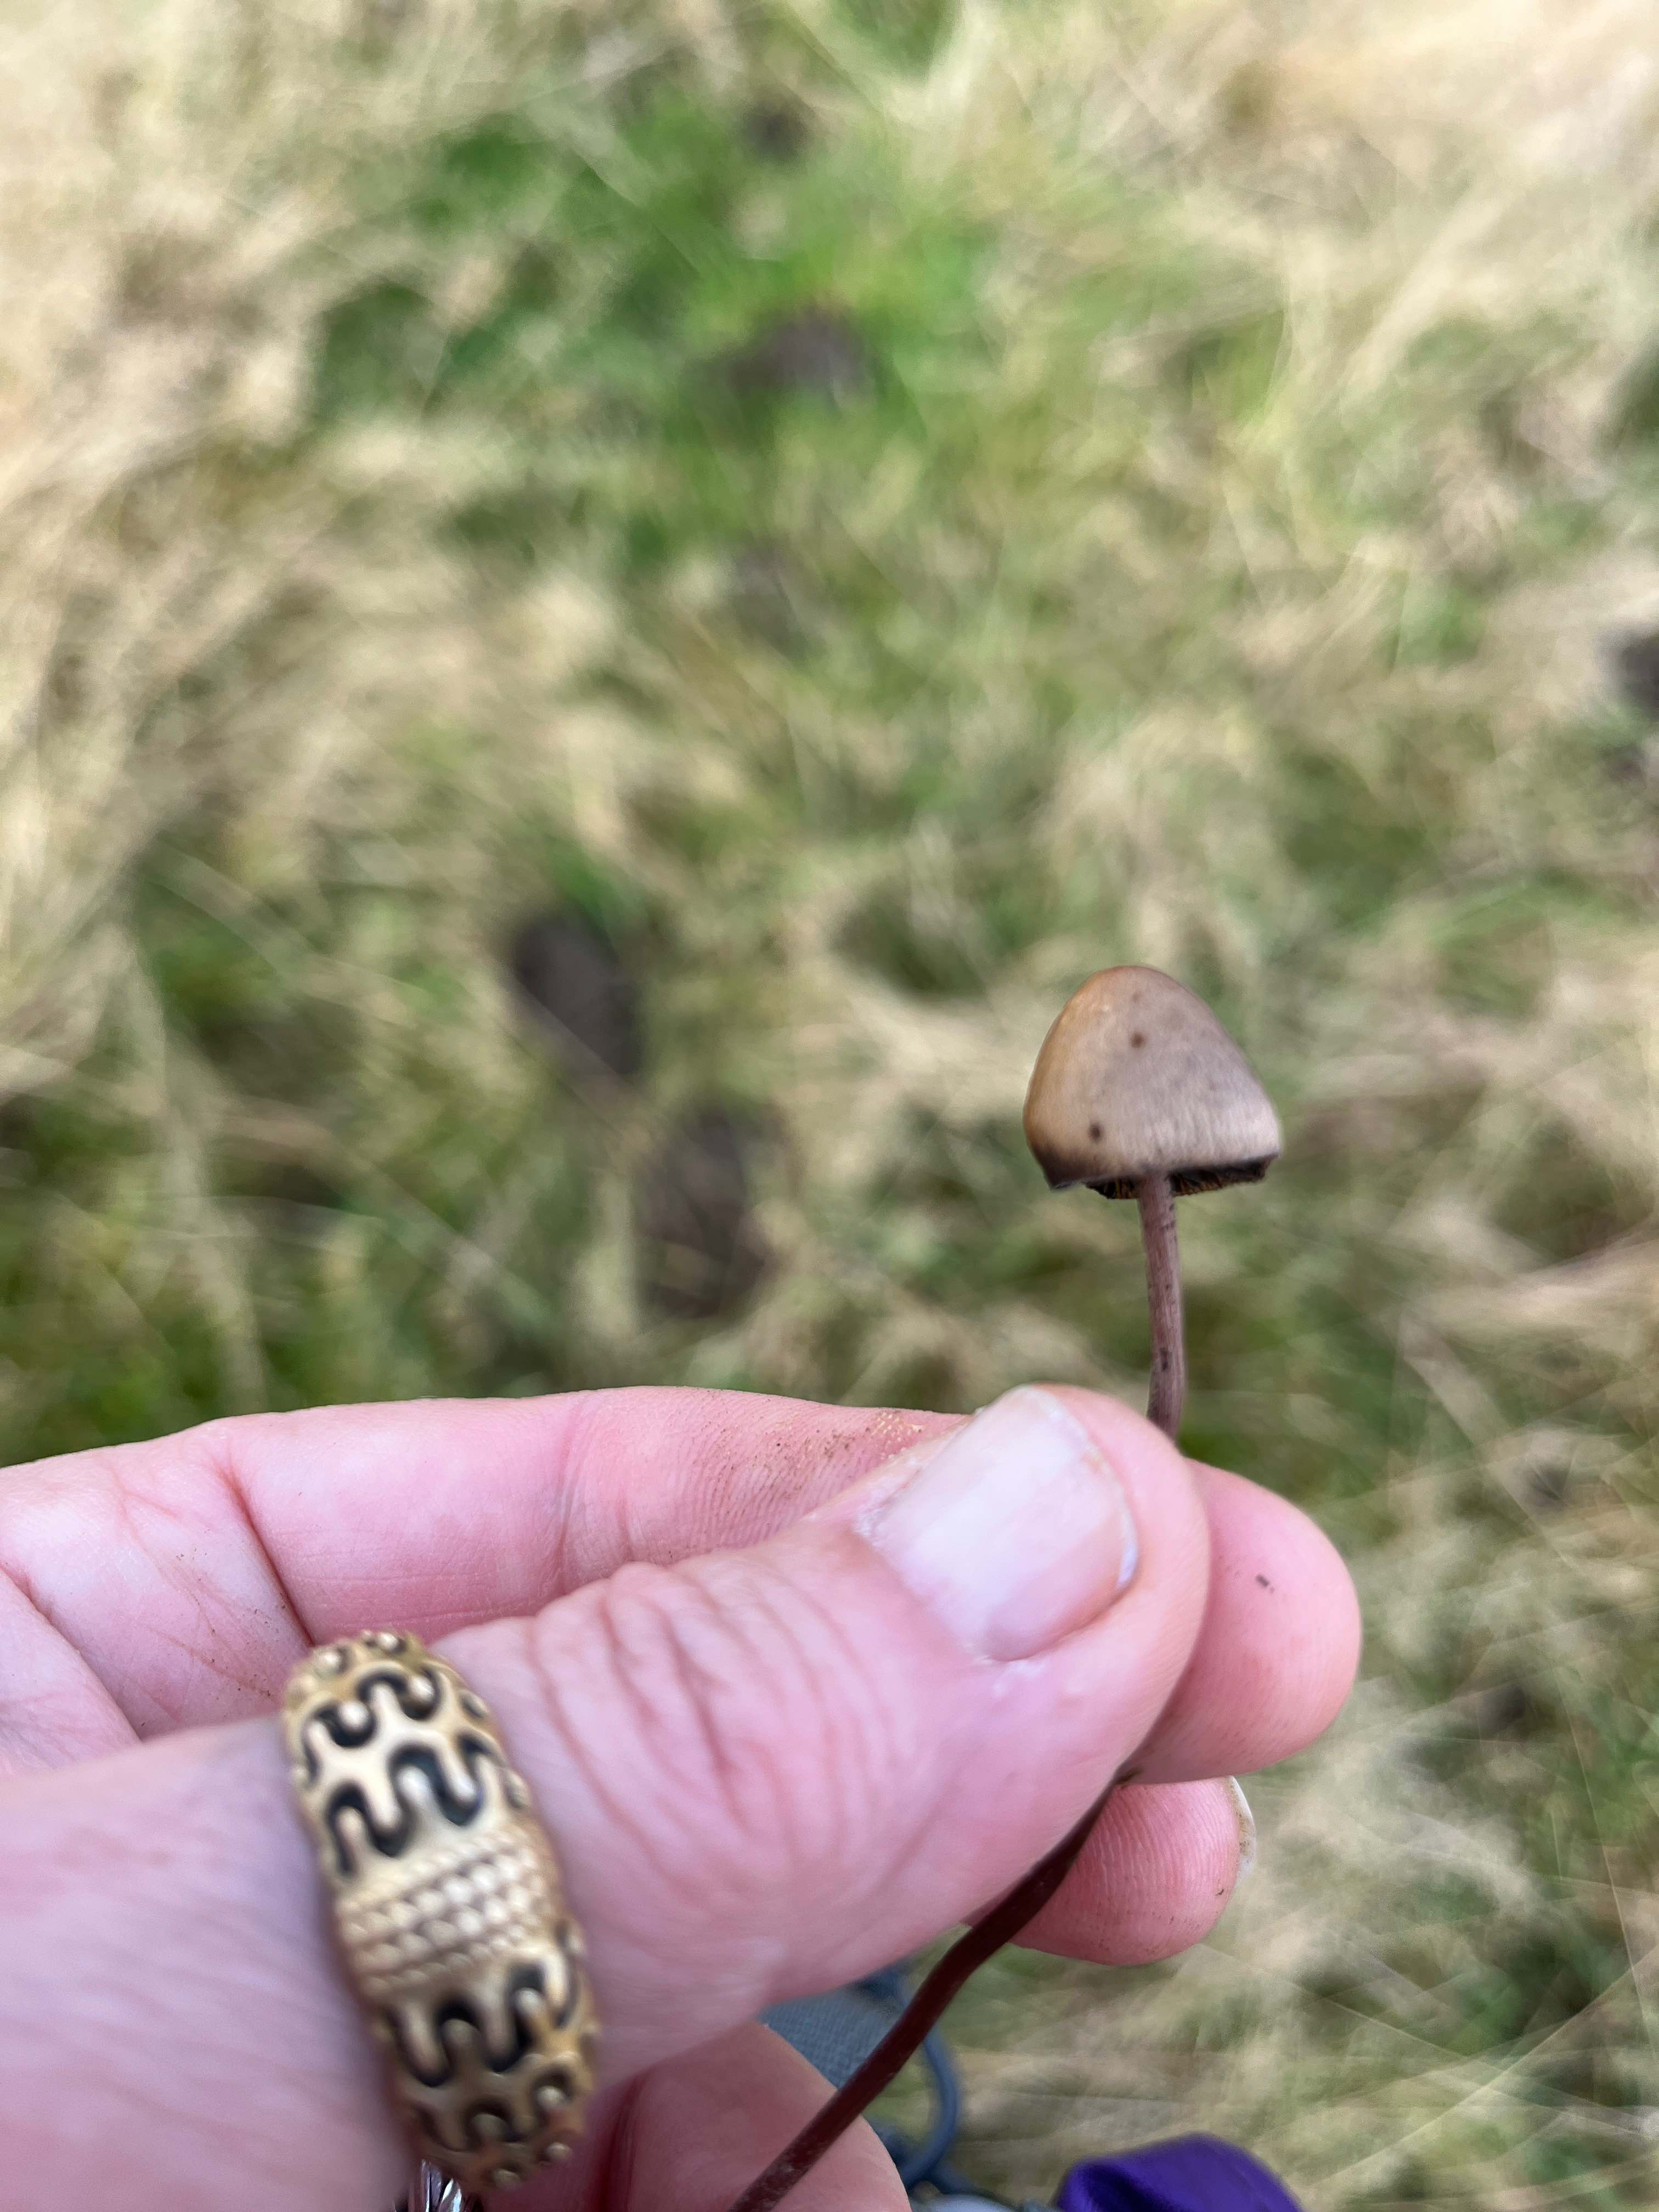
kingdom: Fungi
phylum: Basidiomycota
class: Agaricomycetes
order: Agaricales
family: Bolbitiaceae
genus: Panaeolus
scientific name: Panaeolus
